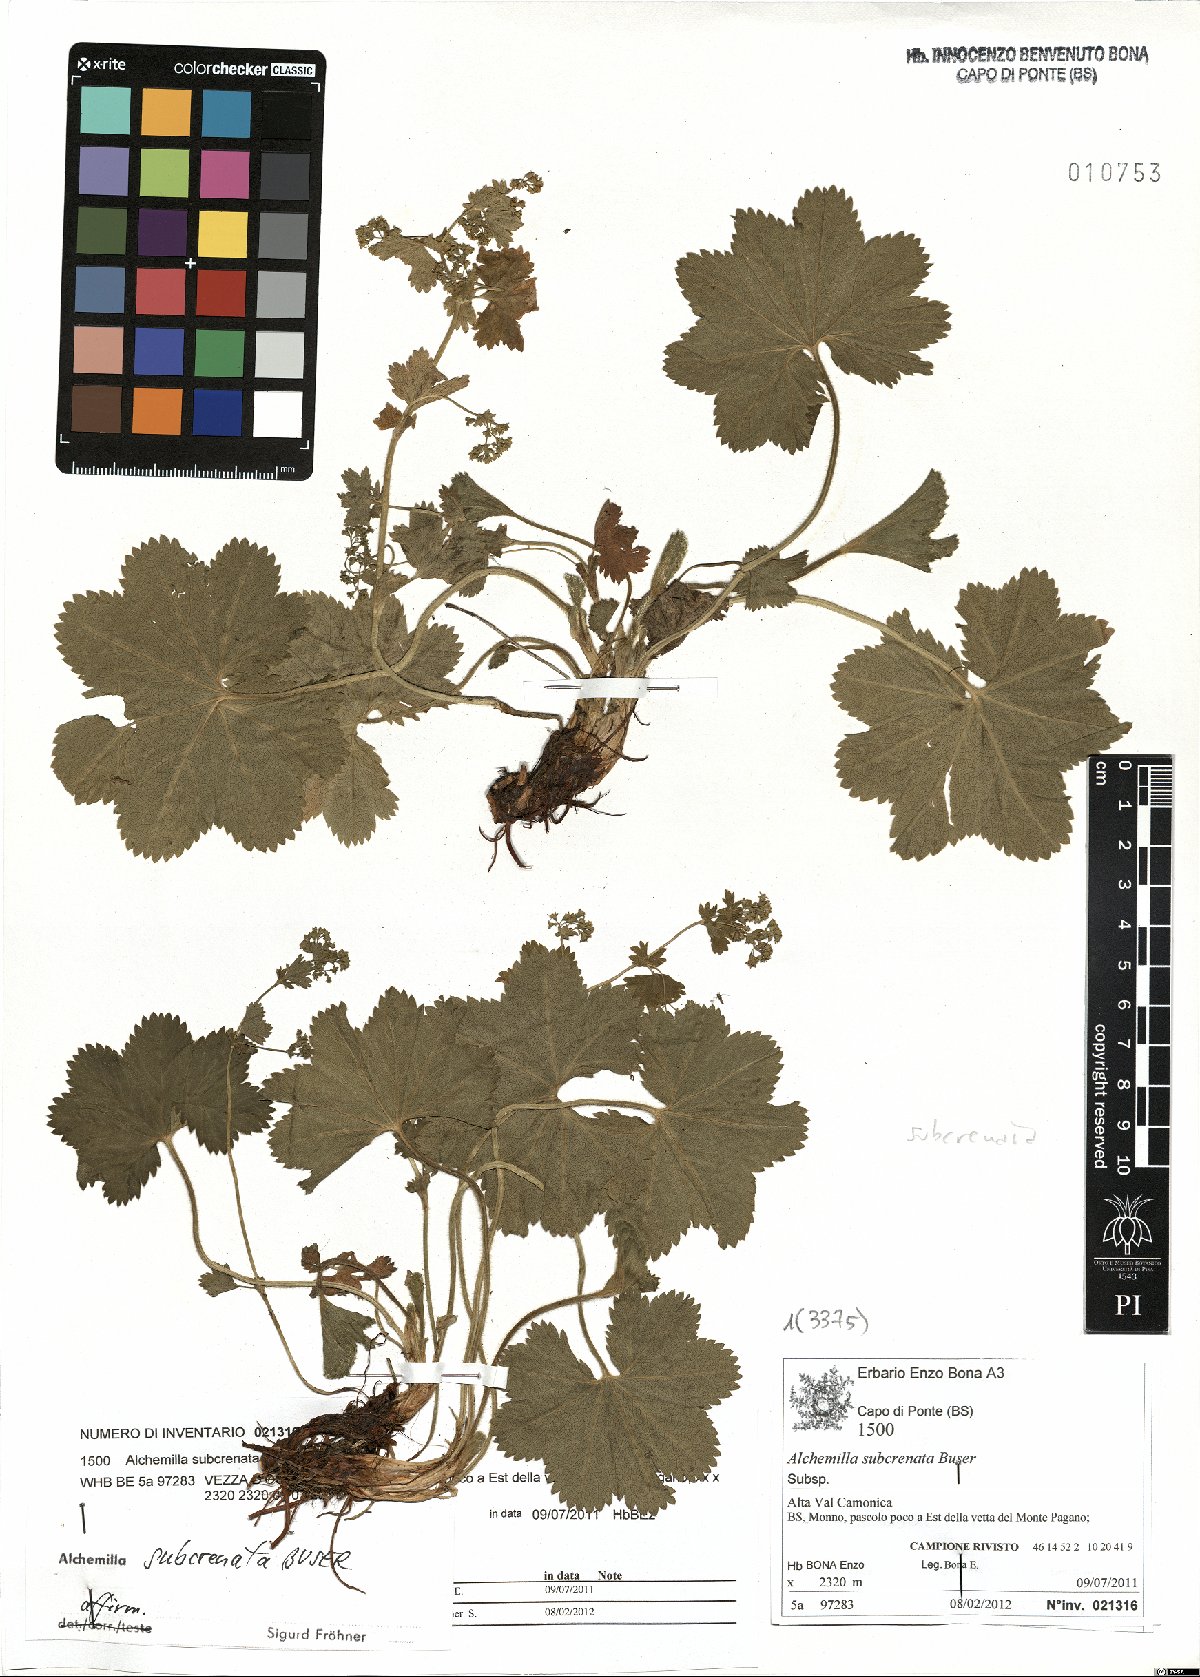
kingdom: Plantae
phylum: Tracheophyta
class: Magnoliopsida
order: Rosales
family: Rosaceae
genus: Alchemilla
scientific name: Alchemilla subcrenata
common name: Broadtooth lady's mantle
